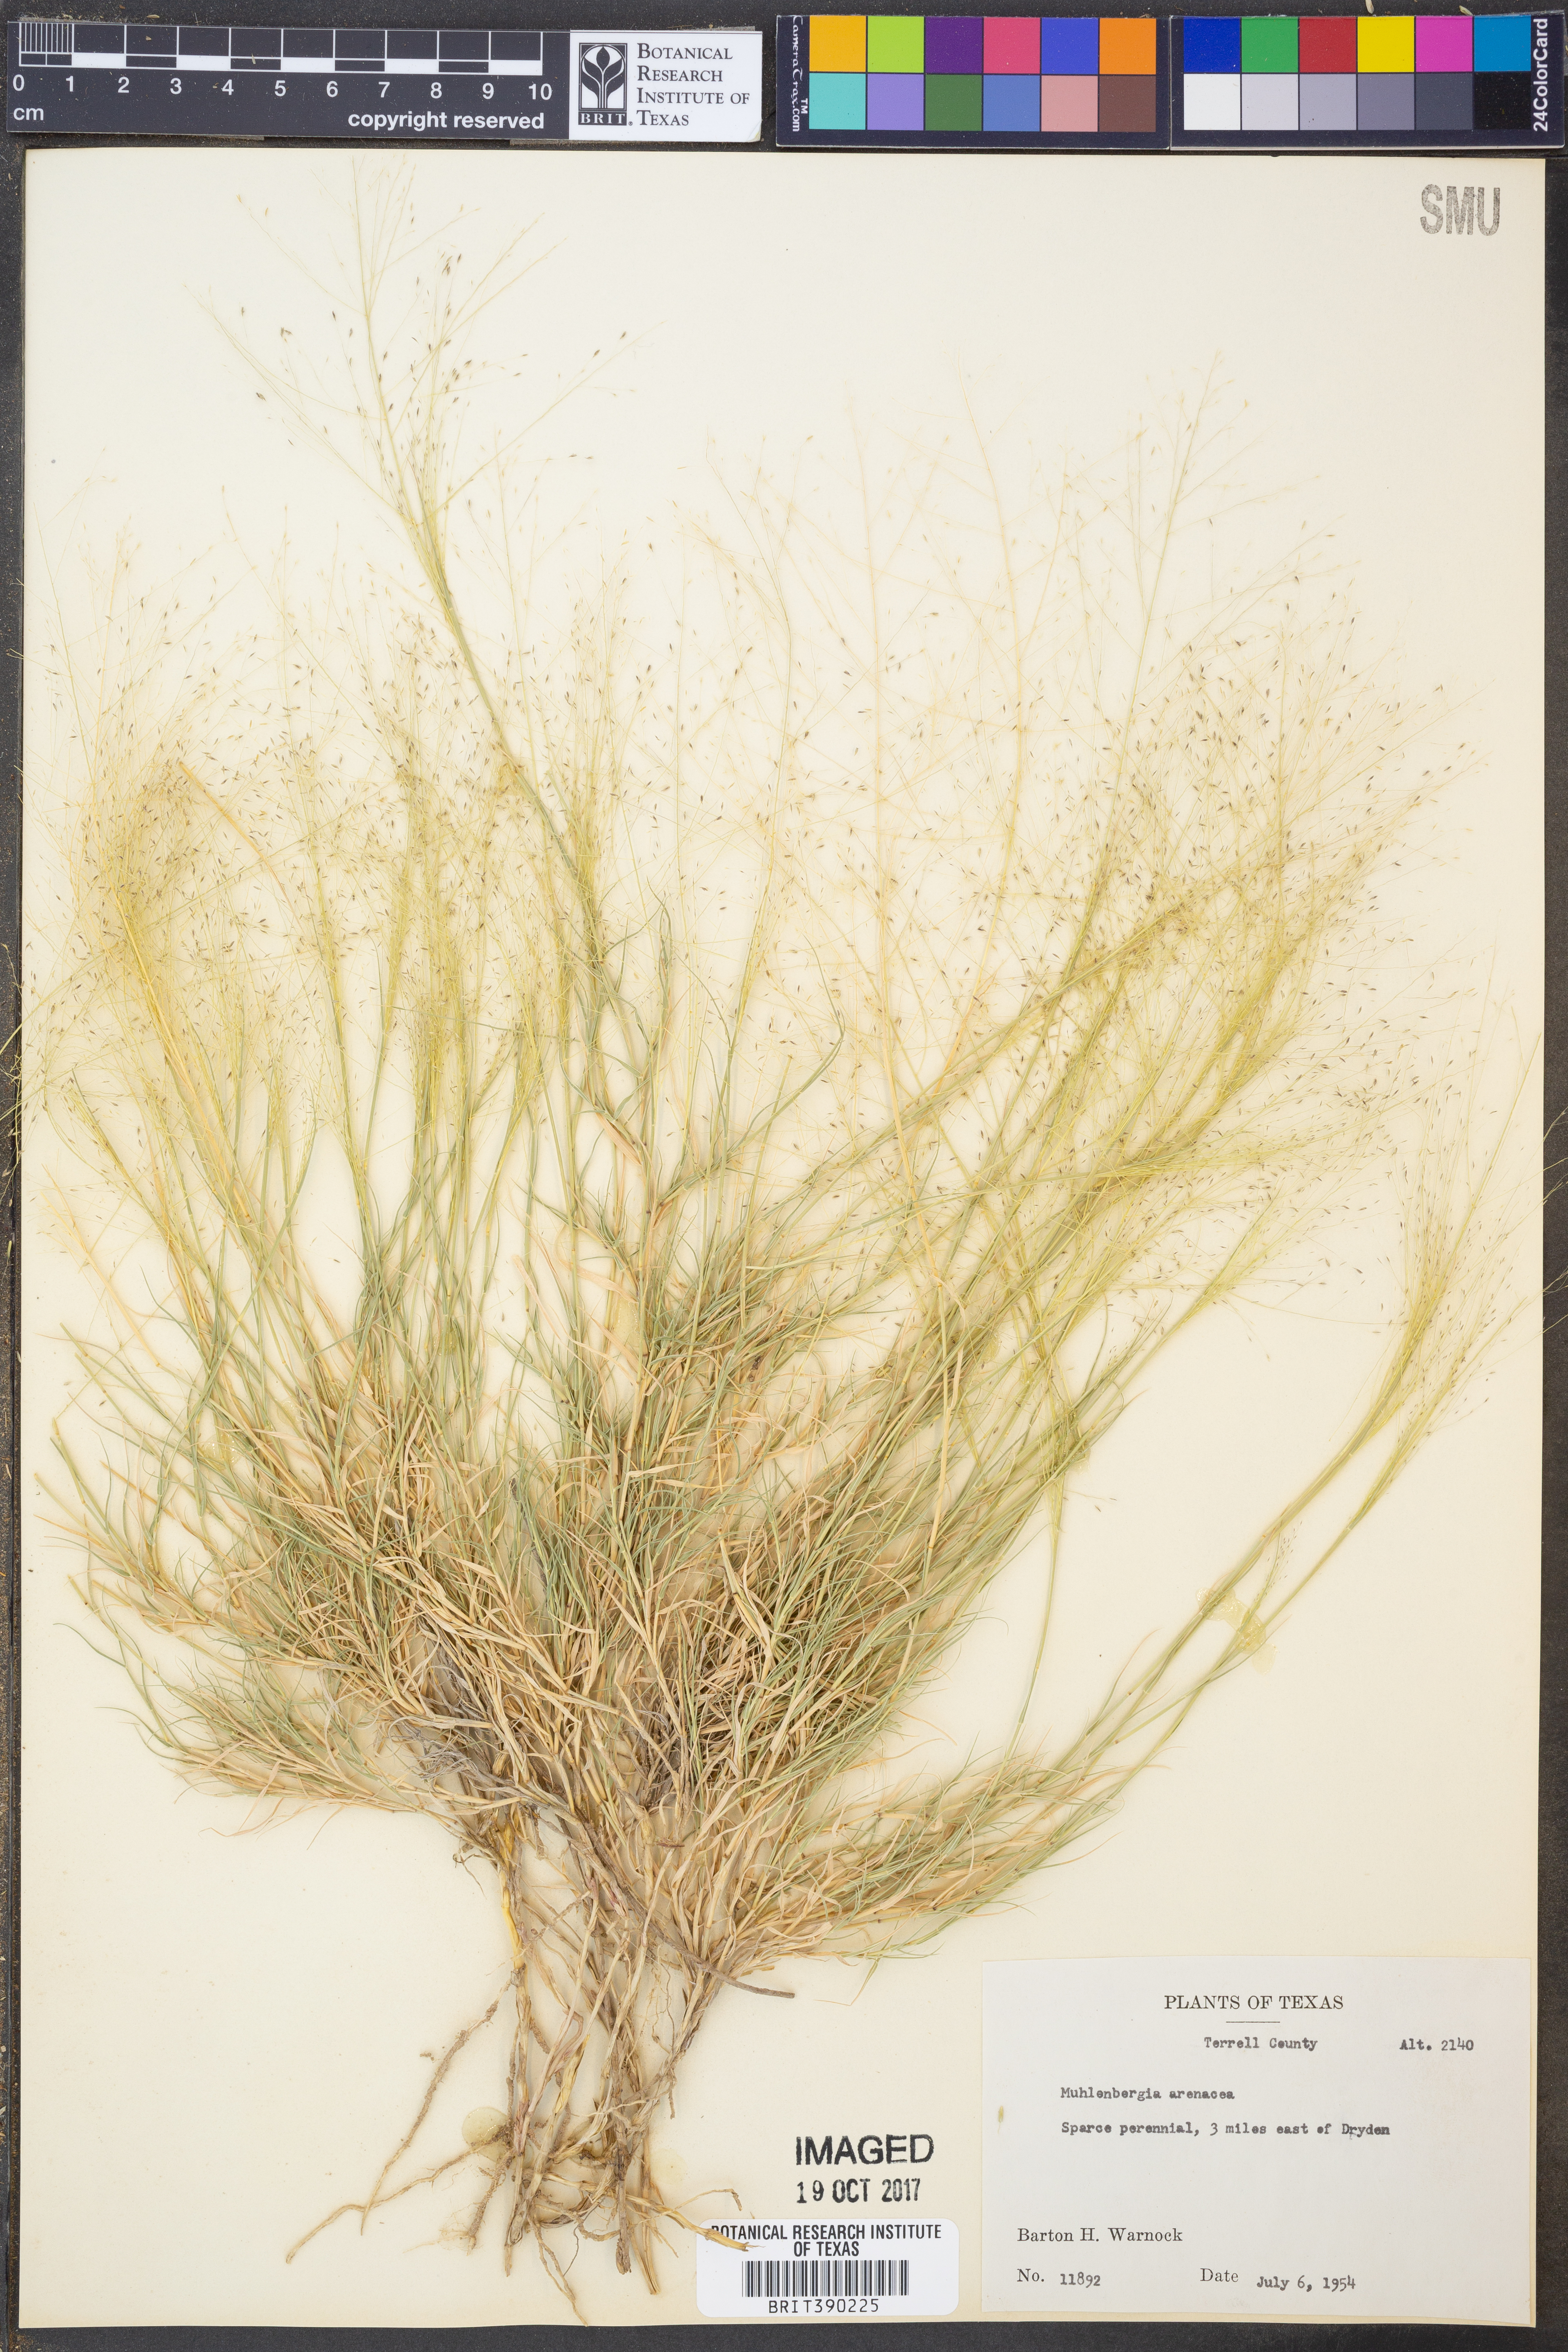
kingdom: Plantae
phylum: Tracheophyta
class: Liliopsida
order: Poales
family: Poaceae
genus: Muhlenbergia
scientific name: Muhlenbergia arenacea
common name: Ear muhly
